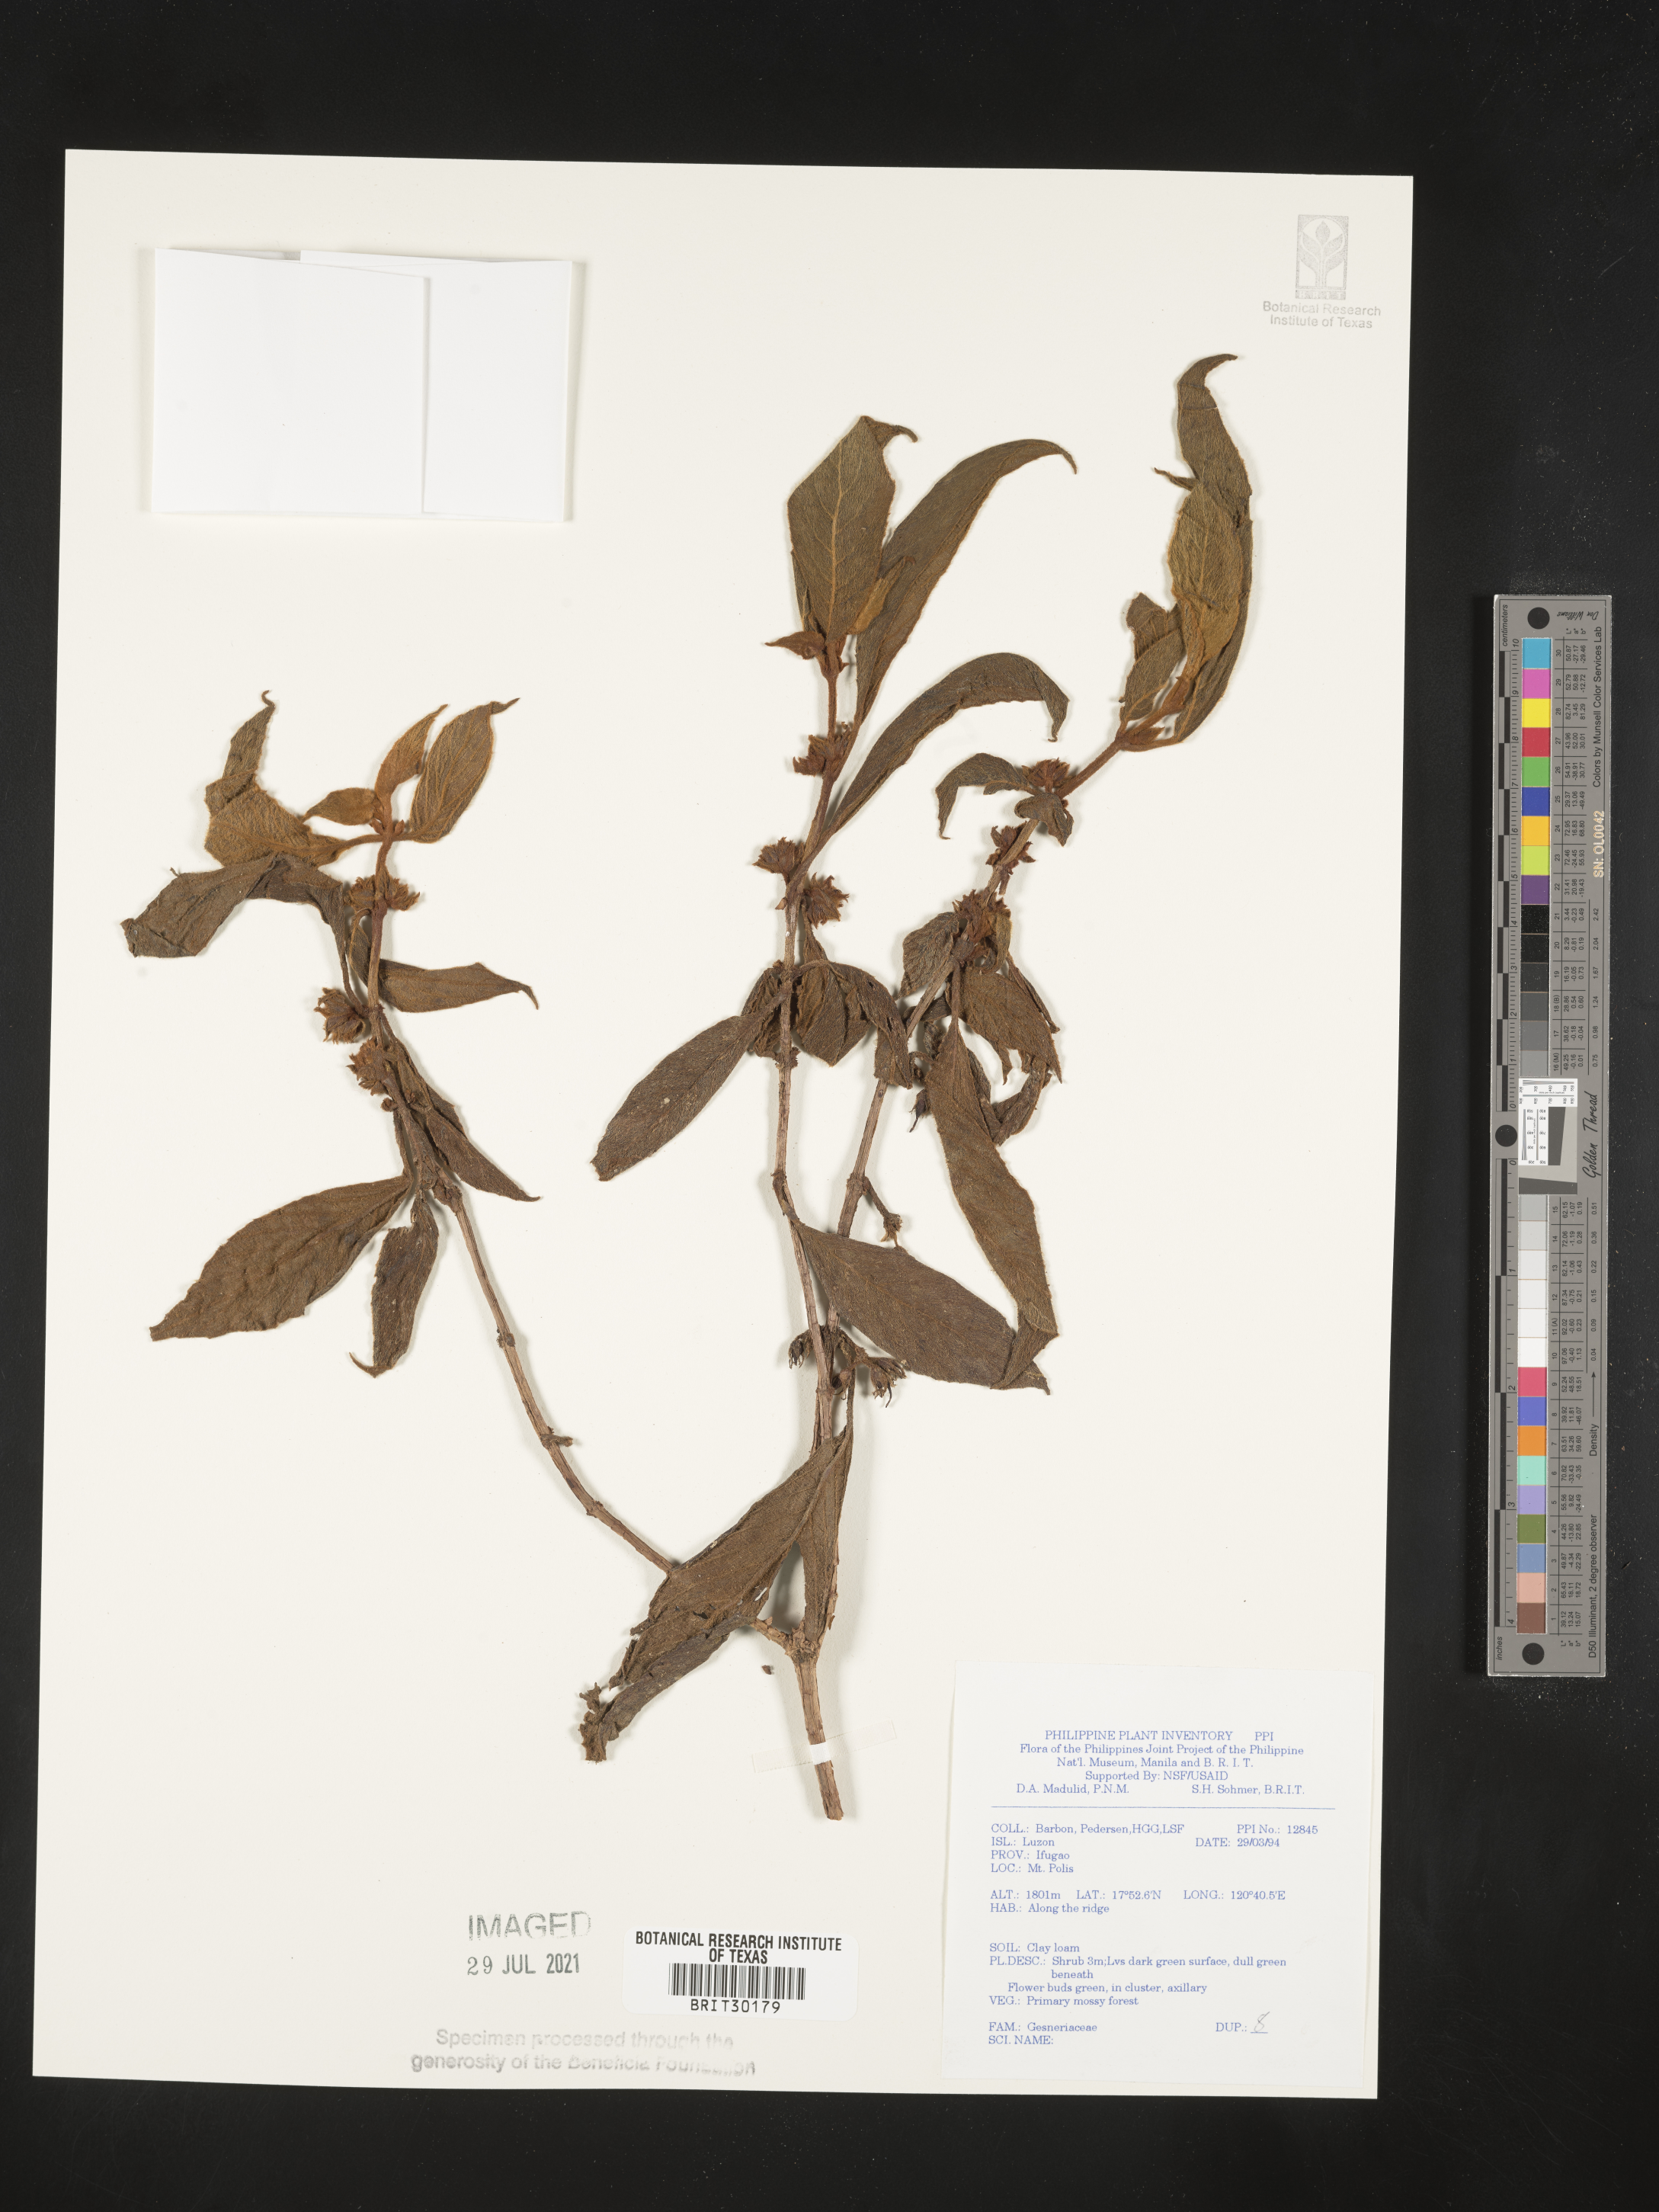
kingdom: Plantae
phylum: Tracheophyta
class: Magnoliopsida
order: Lamiales
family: Gesneriaceae
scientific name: Gesneriaceae
